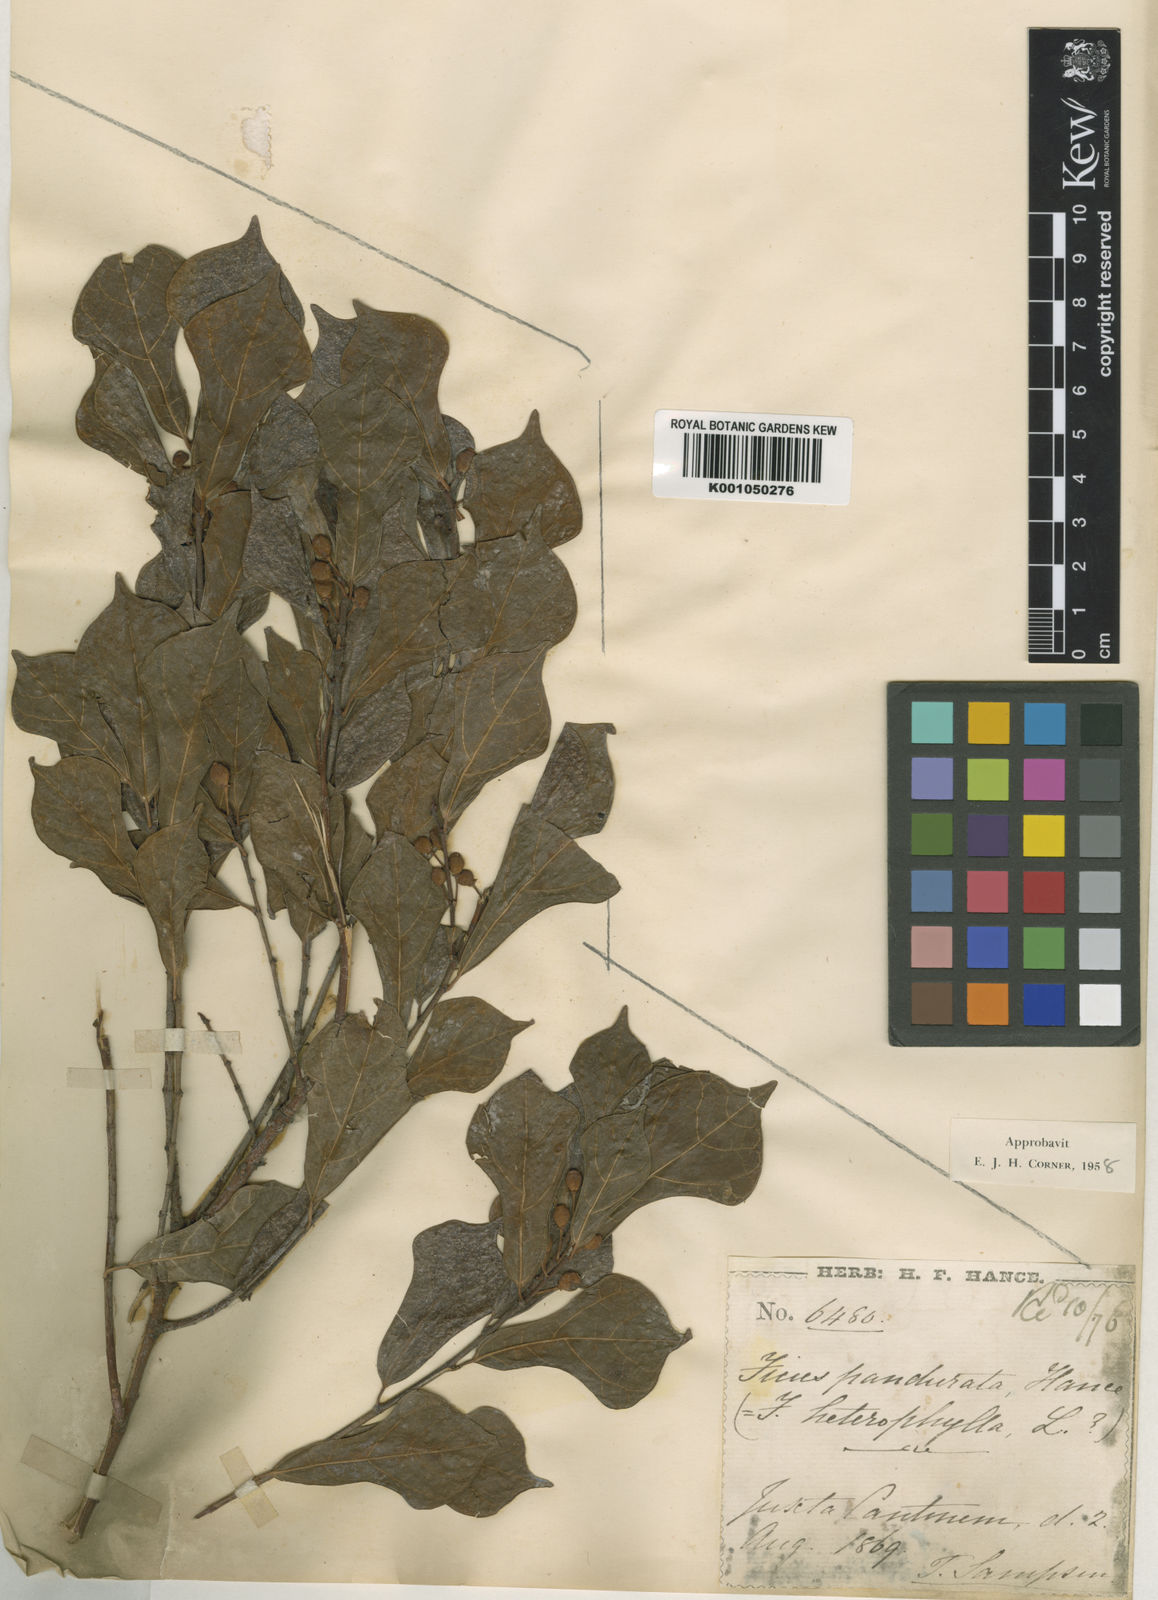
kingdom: Plantae
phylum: Tracheophyta
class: Magnoliopsida
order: Rosales
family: Moraceae
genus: Ficus
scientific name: Ficus pandurata
